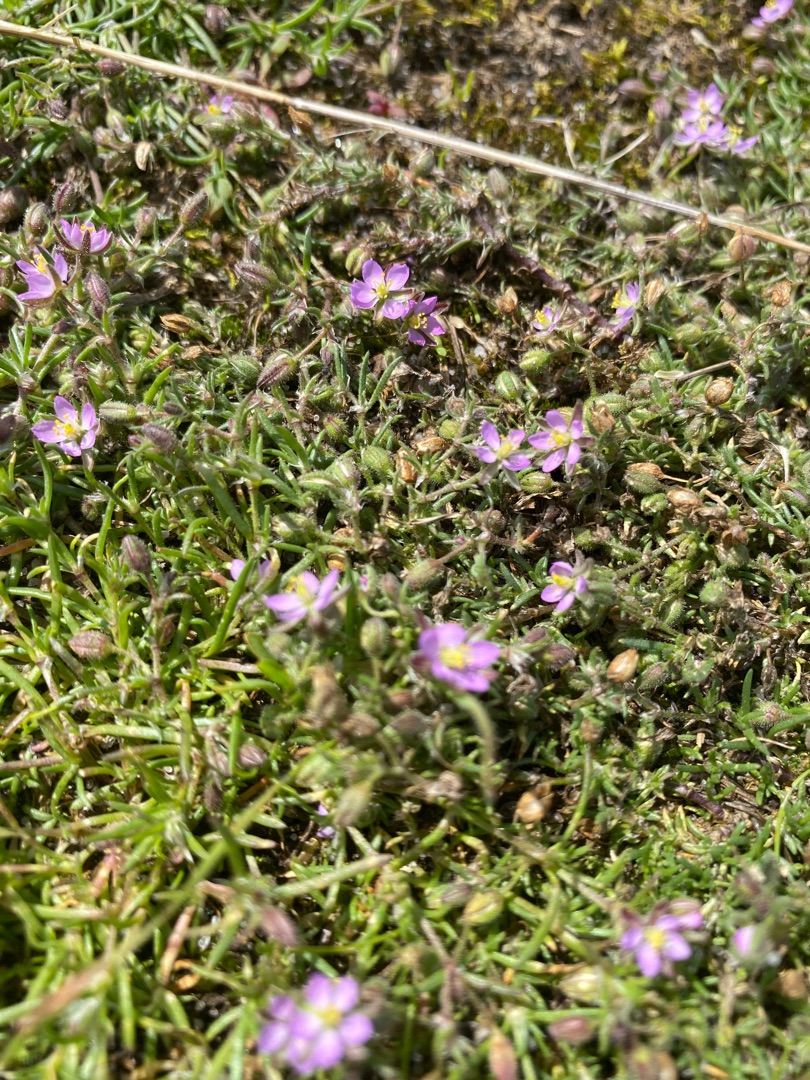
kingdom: Plantae
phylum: Tracheophyta
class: Magnoliopsida
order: Caryophyllales
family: Caryophyllaceae
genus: Spergularia
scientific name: Spergularia marina
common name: Kødet hindeknæ
